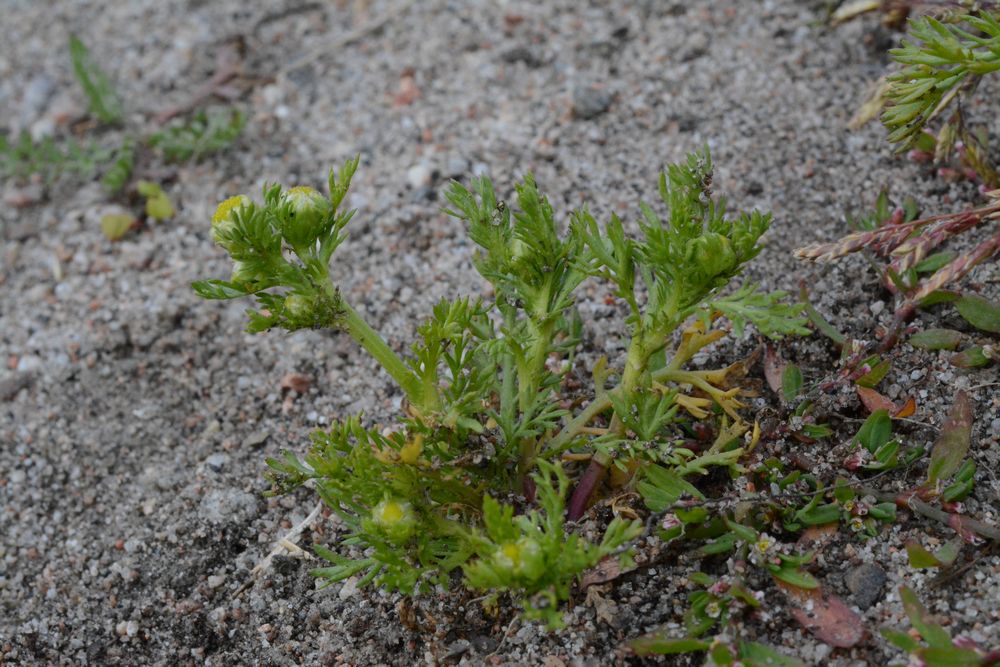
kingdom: Plantae
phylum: Tracheophyta
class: Magnoliopsida
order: Asterales
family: Asteraceae
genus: Matricaria
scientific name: Matricaria discoidea
